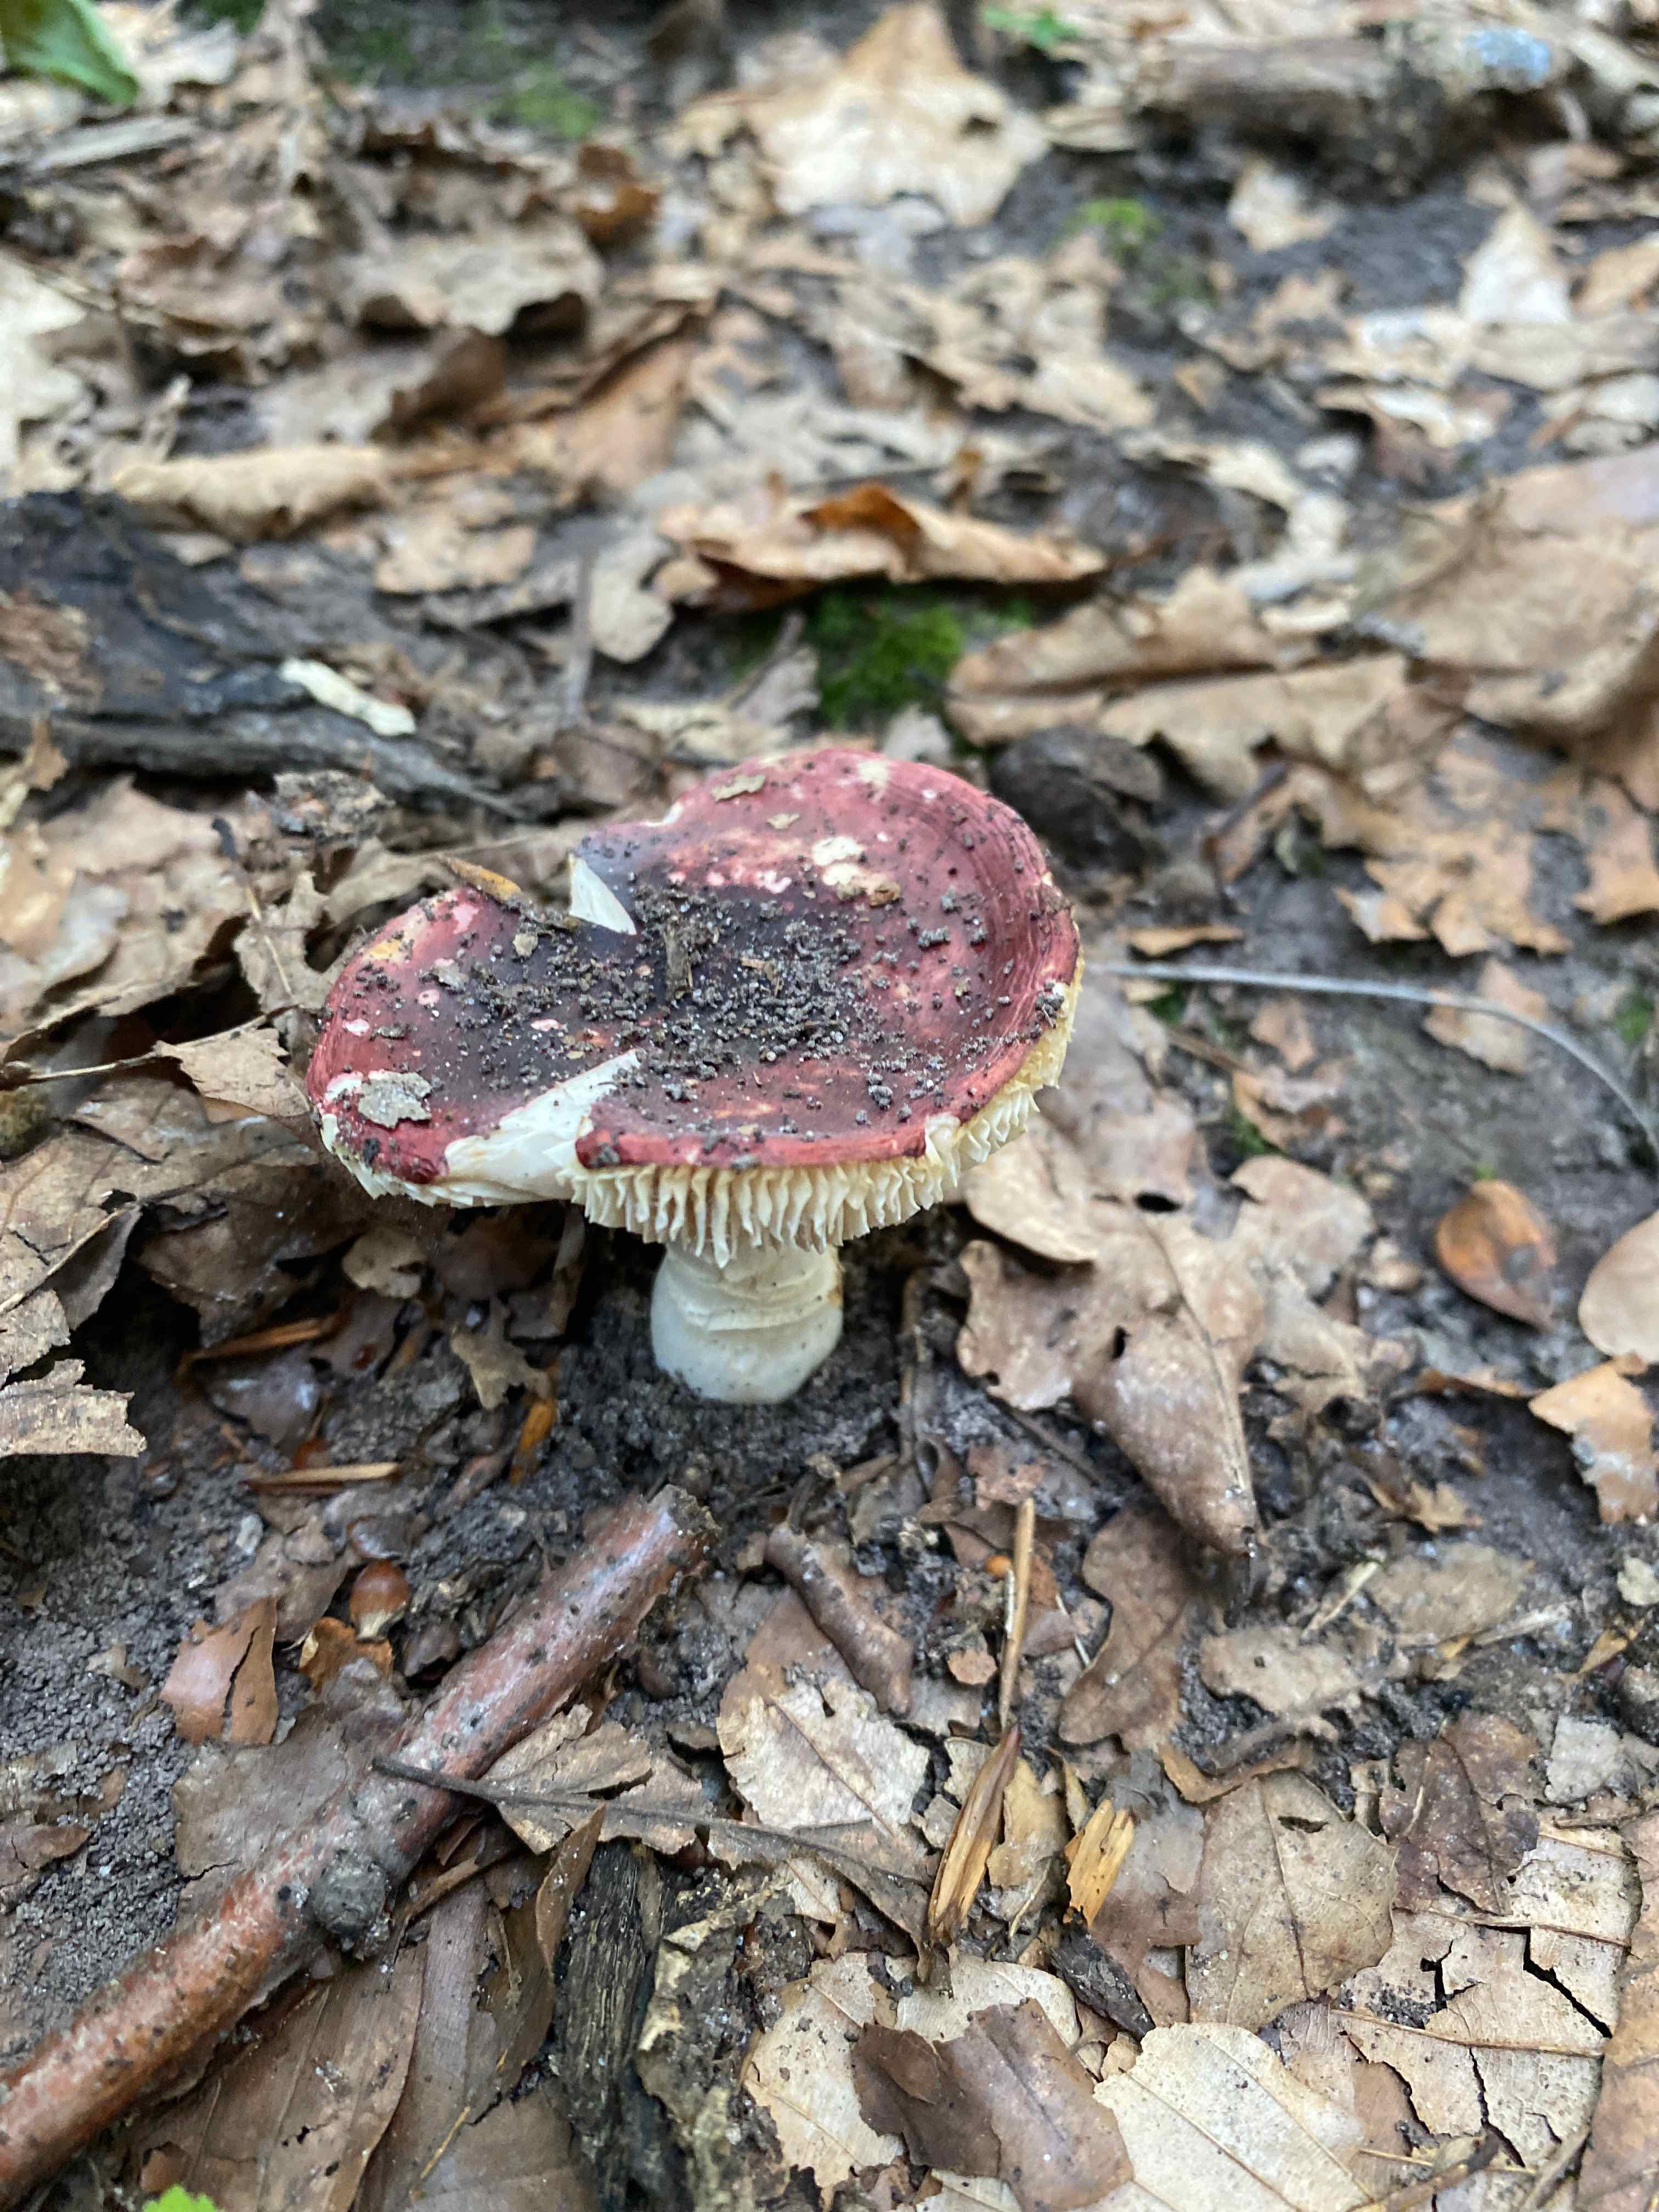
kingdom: Fungi
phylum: Basidiomycota
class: Agaricomycetes
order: Russulales
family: Russulaceae
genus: Russula
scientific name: Russula
